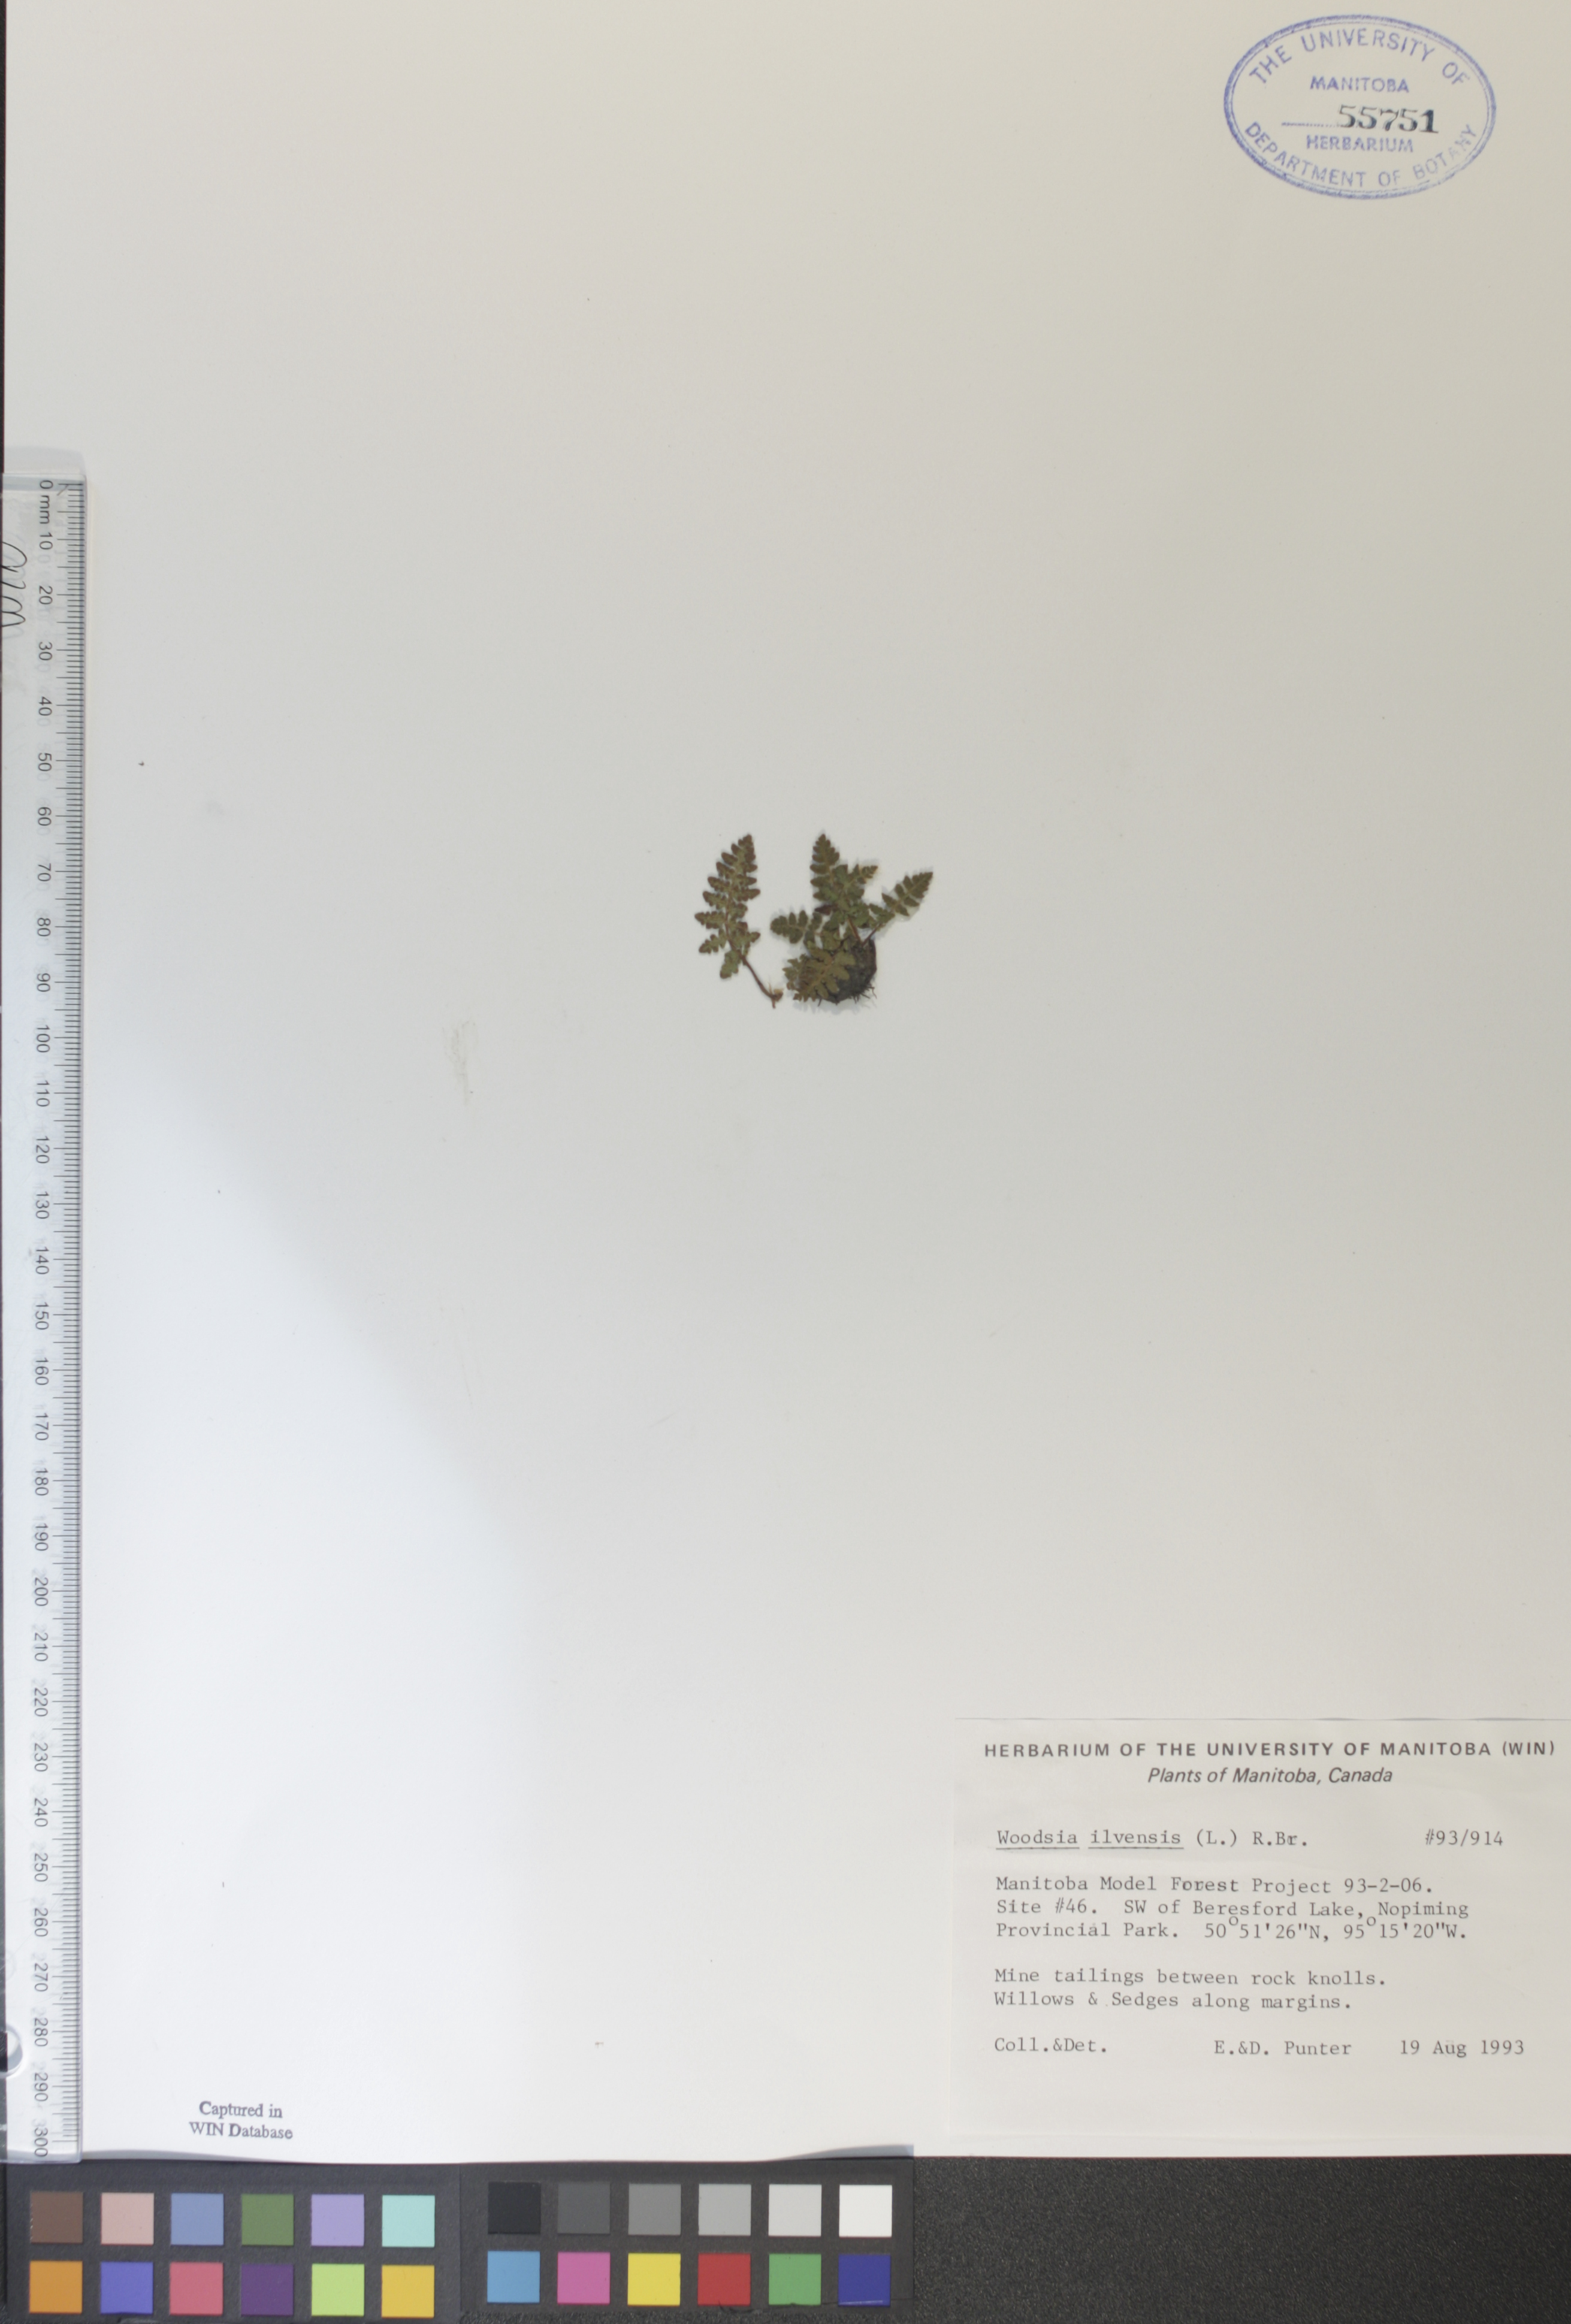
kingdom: Plantae
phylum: Tracheophyta
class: Polypodiopsida
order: Polypodiales
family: Woodsiaceae
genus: Woodsia
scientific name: Woodsia ilvensis
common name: Fragrant woodsia
